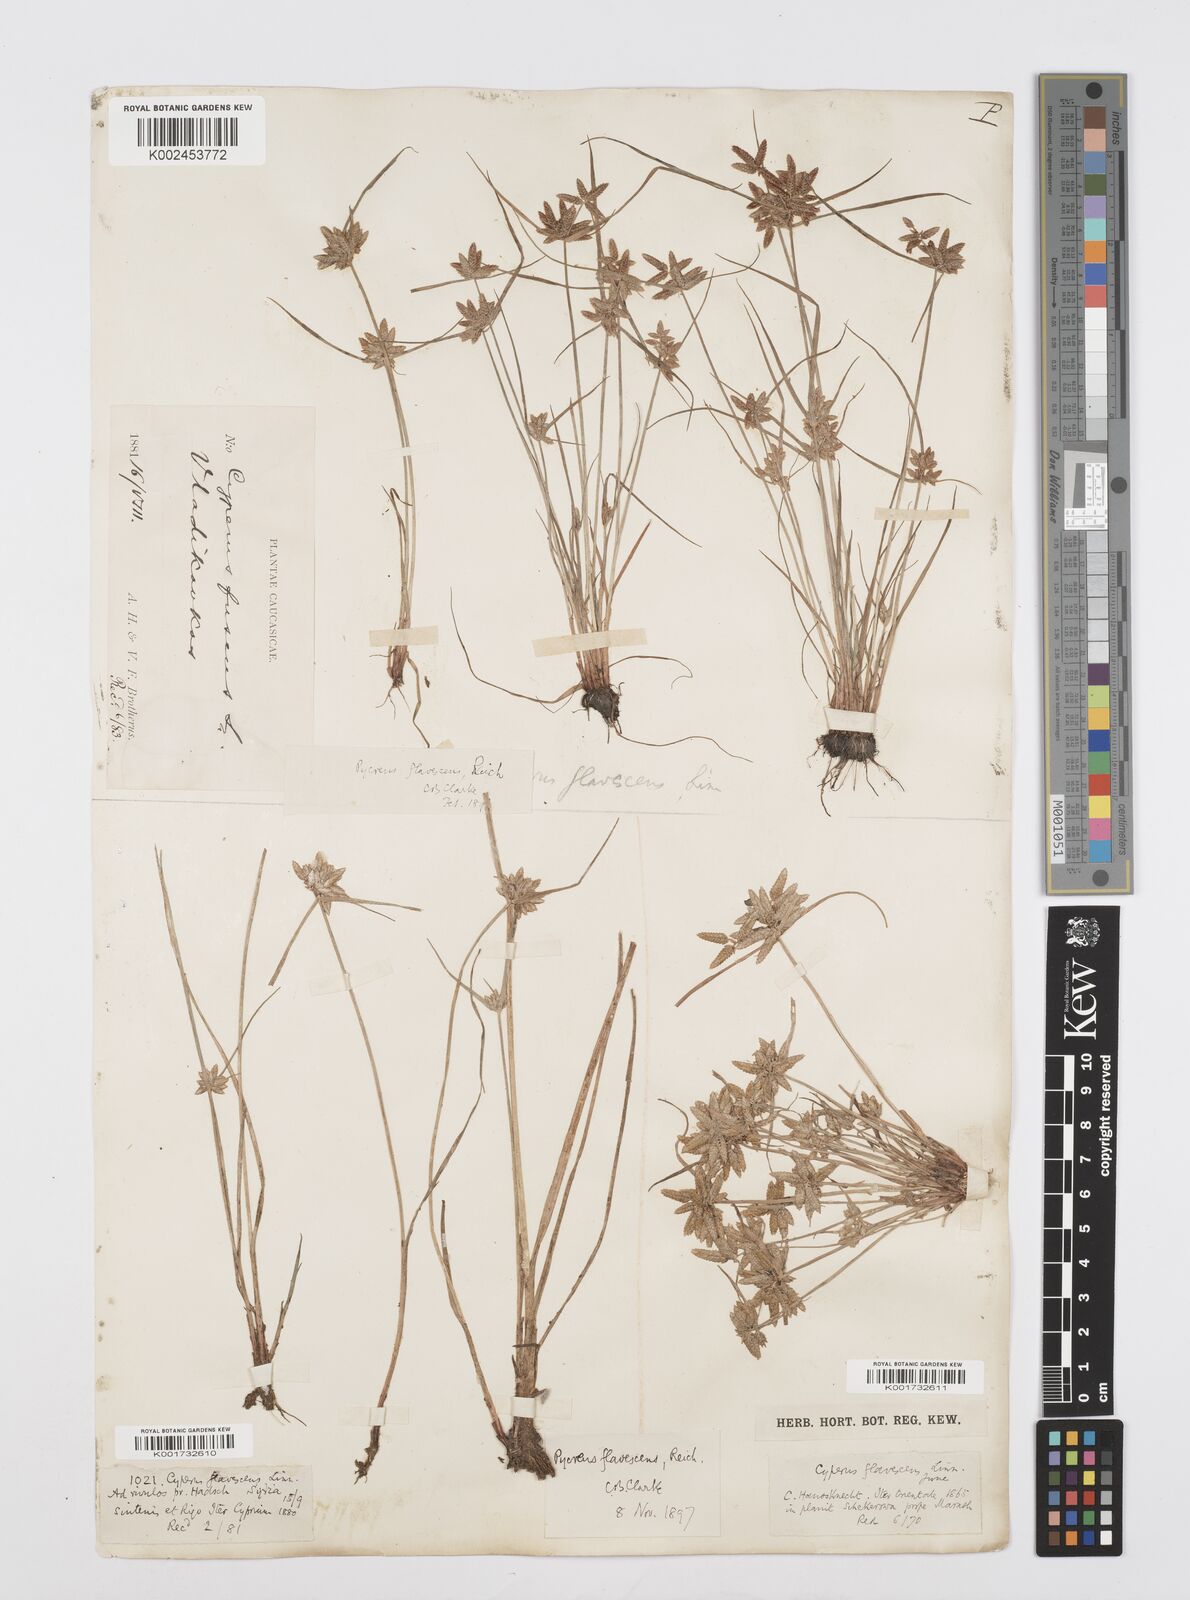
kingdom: Plantae
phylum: Tracheophyta
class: Liliopsida
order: Poales
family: Cyperaceae
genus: Cyperus
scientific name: Cyperus flavescens
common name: Yellow galingale
